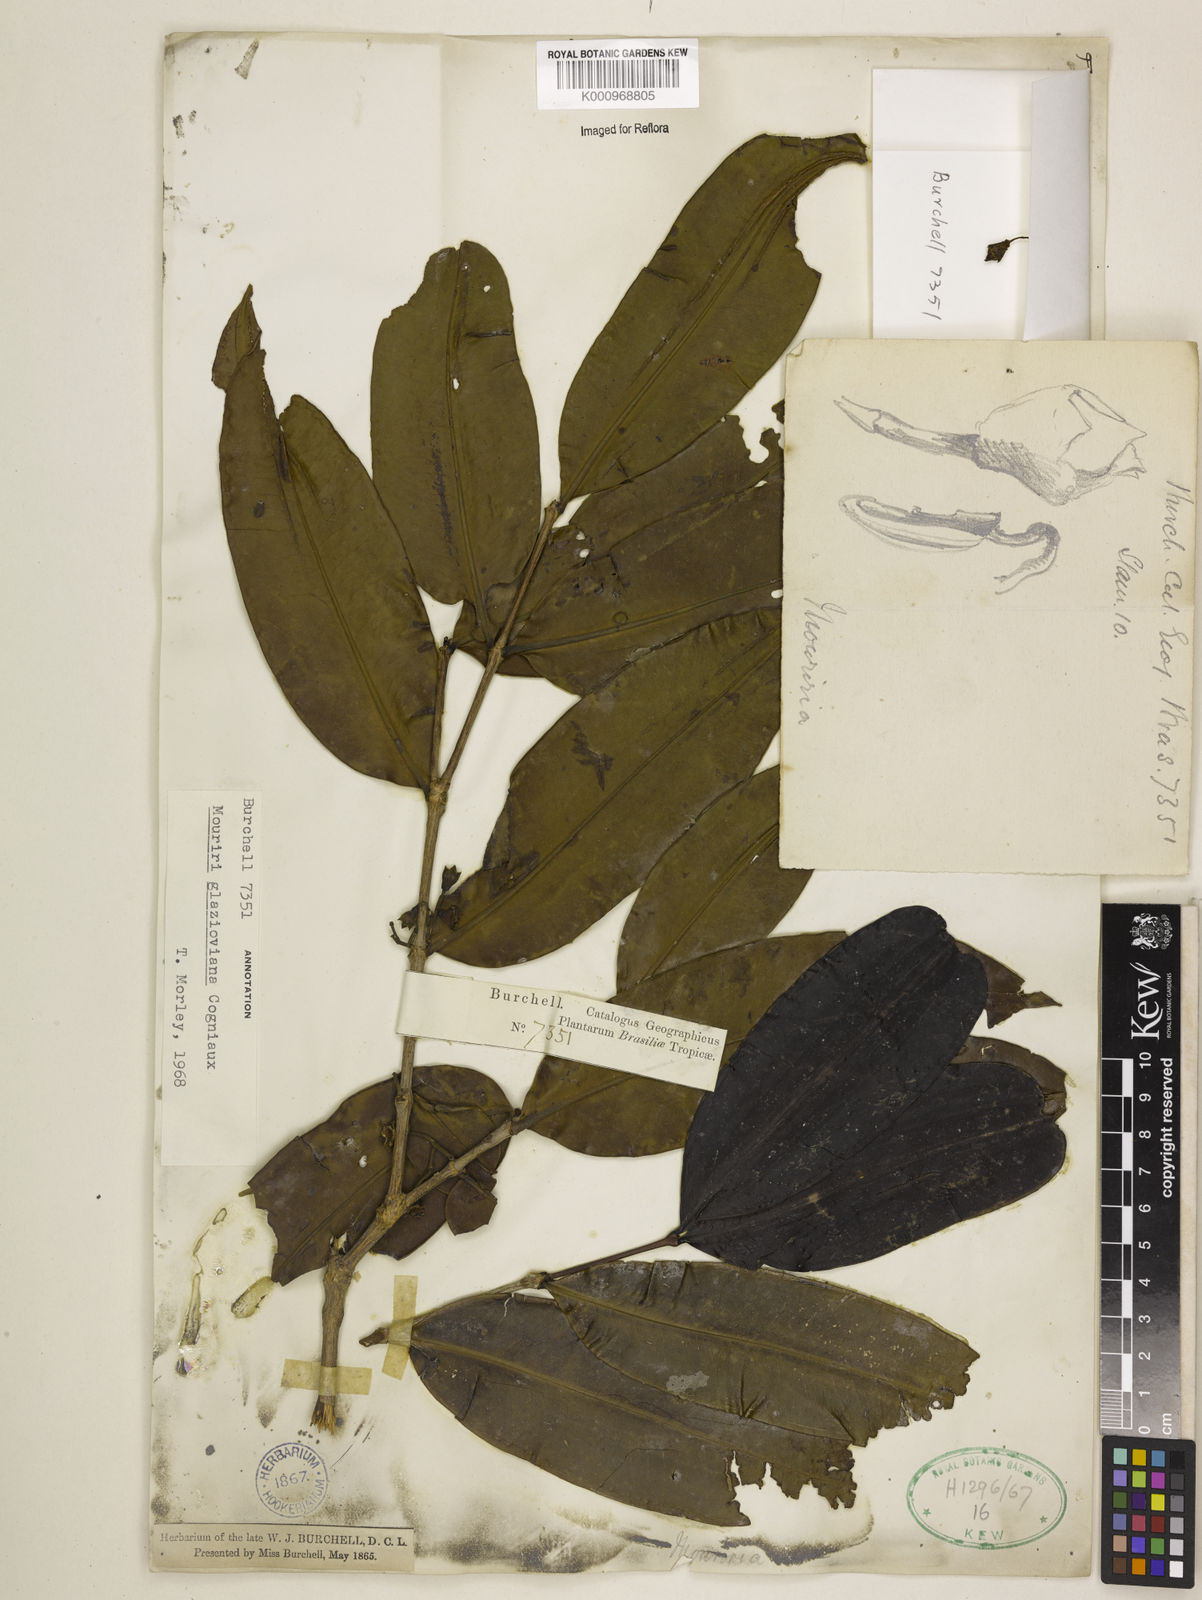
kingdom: Plantae
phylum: Tracheophyta
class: Magnoliopsida
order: Myrtales
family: Melastomataceae
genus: Mouriri
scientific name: Mouriri glazioviana
